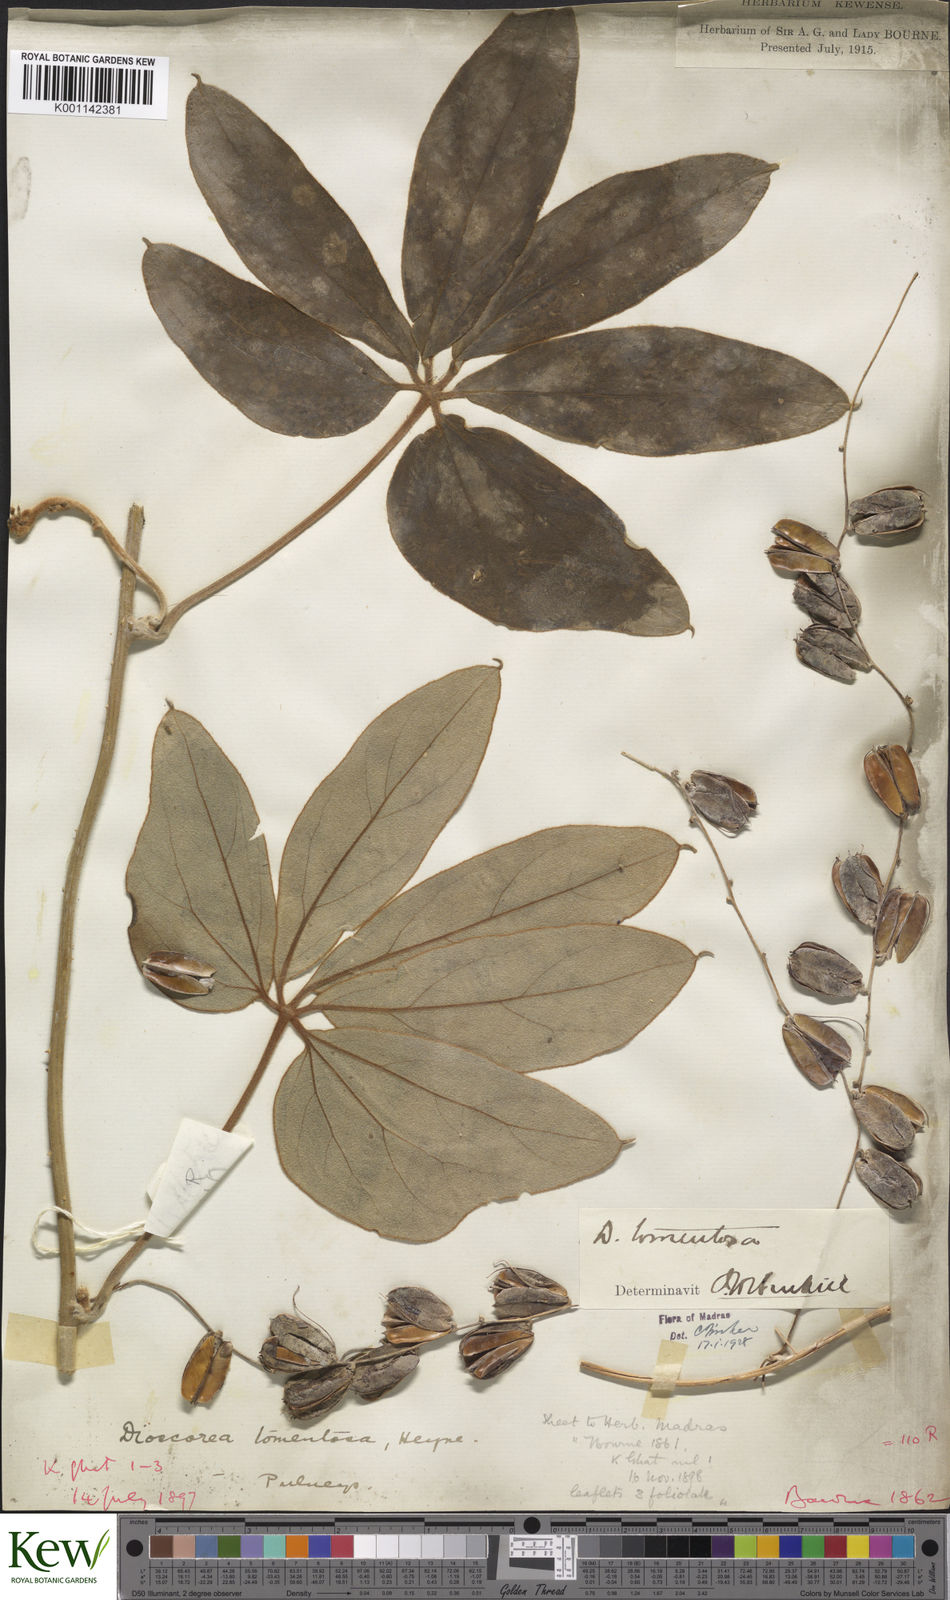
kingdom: Plantae
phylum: Tracheophyta
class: Liliopsida
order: Dioscoreales
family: Dioscoreaceae
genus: Dioscorea
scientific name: Dioscorea
